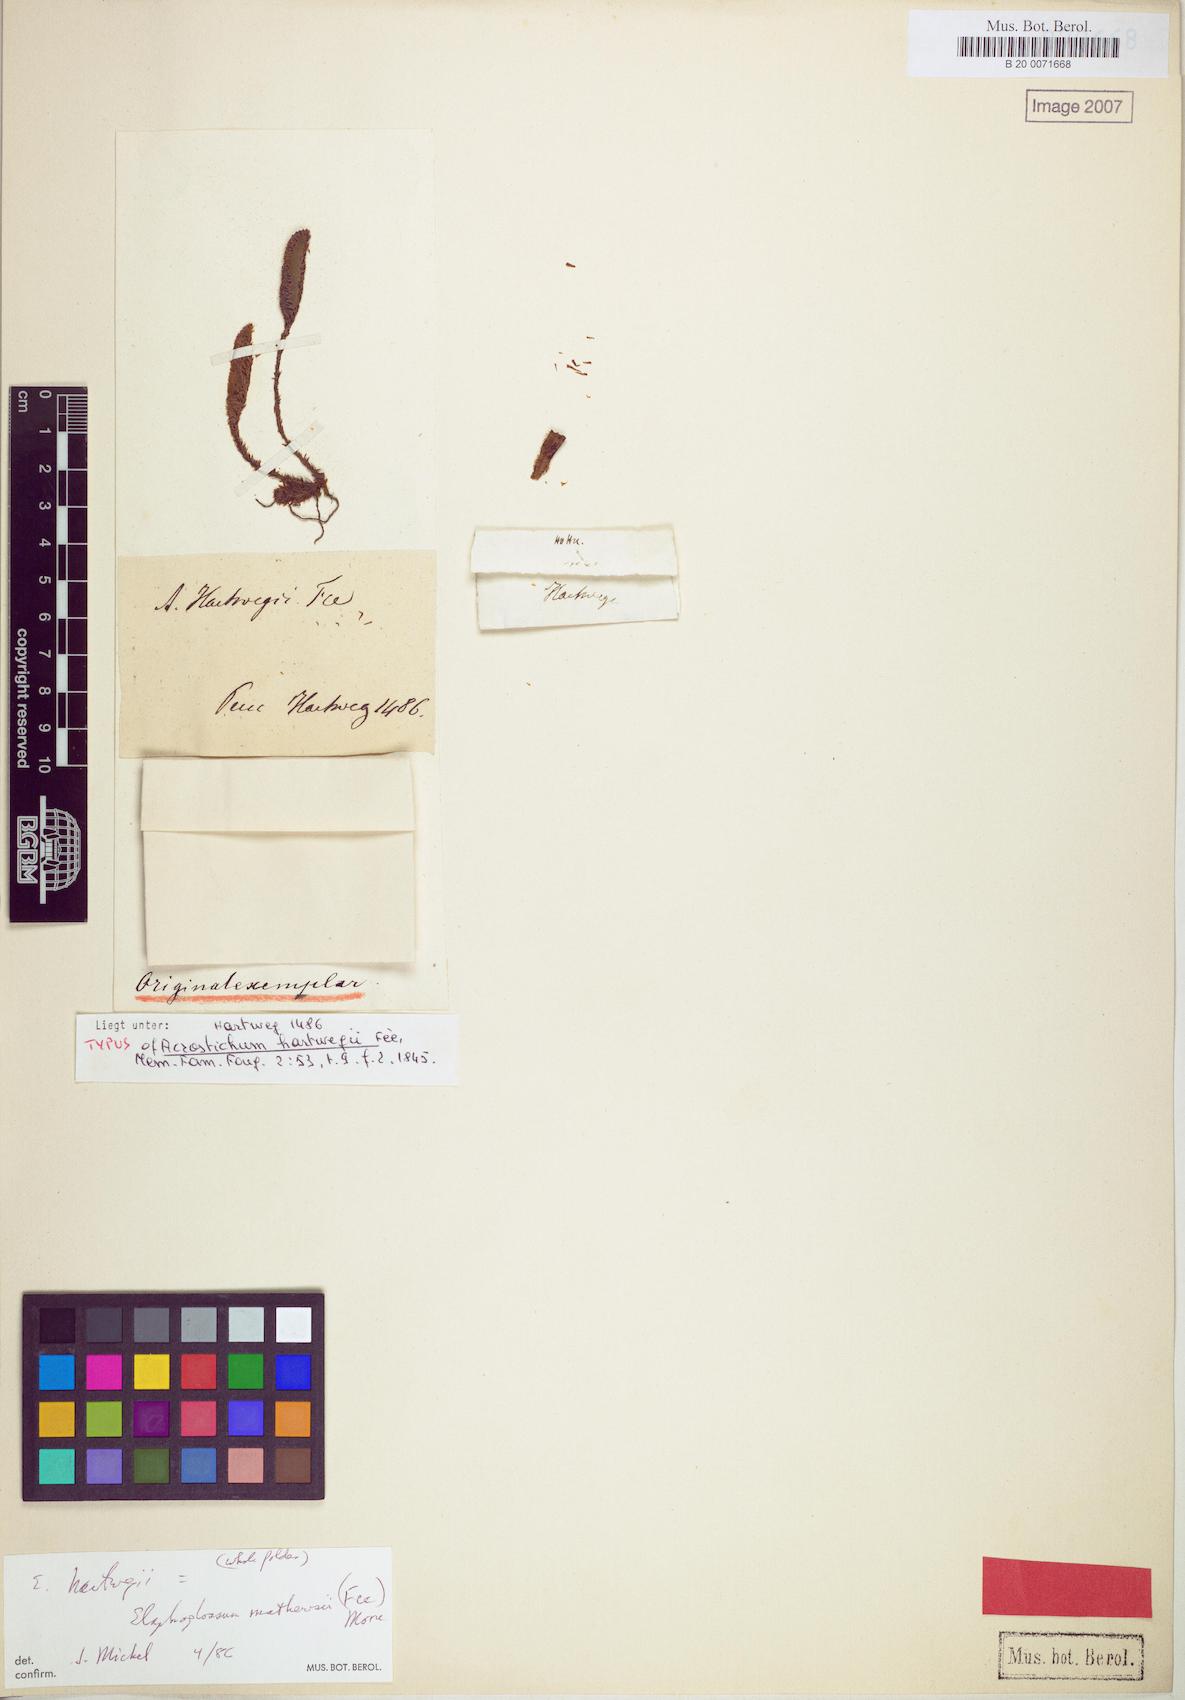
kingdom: Plantae
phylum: Tracheophyta
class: Polypodiopsida
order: Polypodiales
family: Dryopteridaceae
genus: Elaphoglossum
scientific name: Elaphoglossum hartwegii
